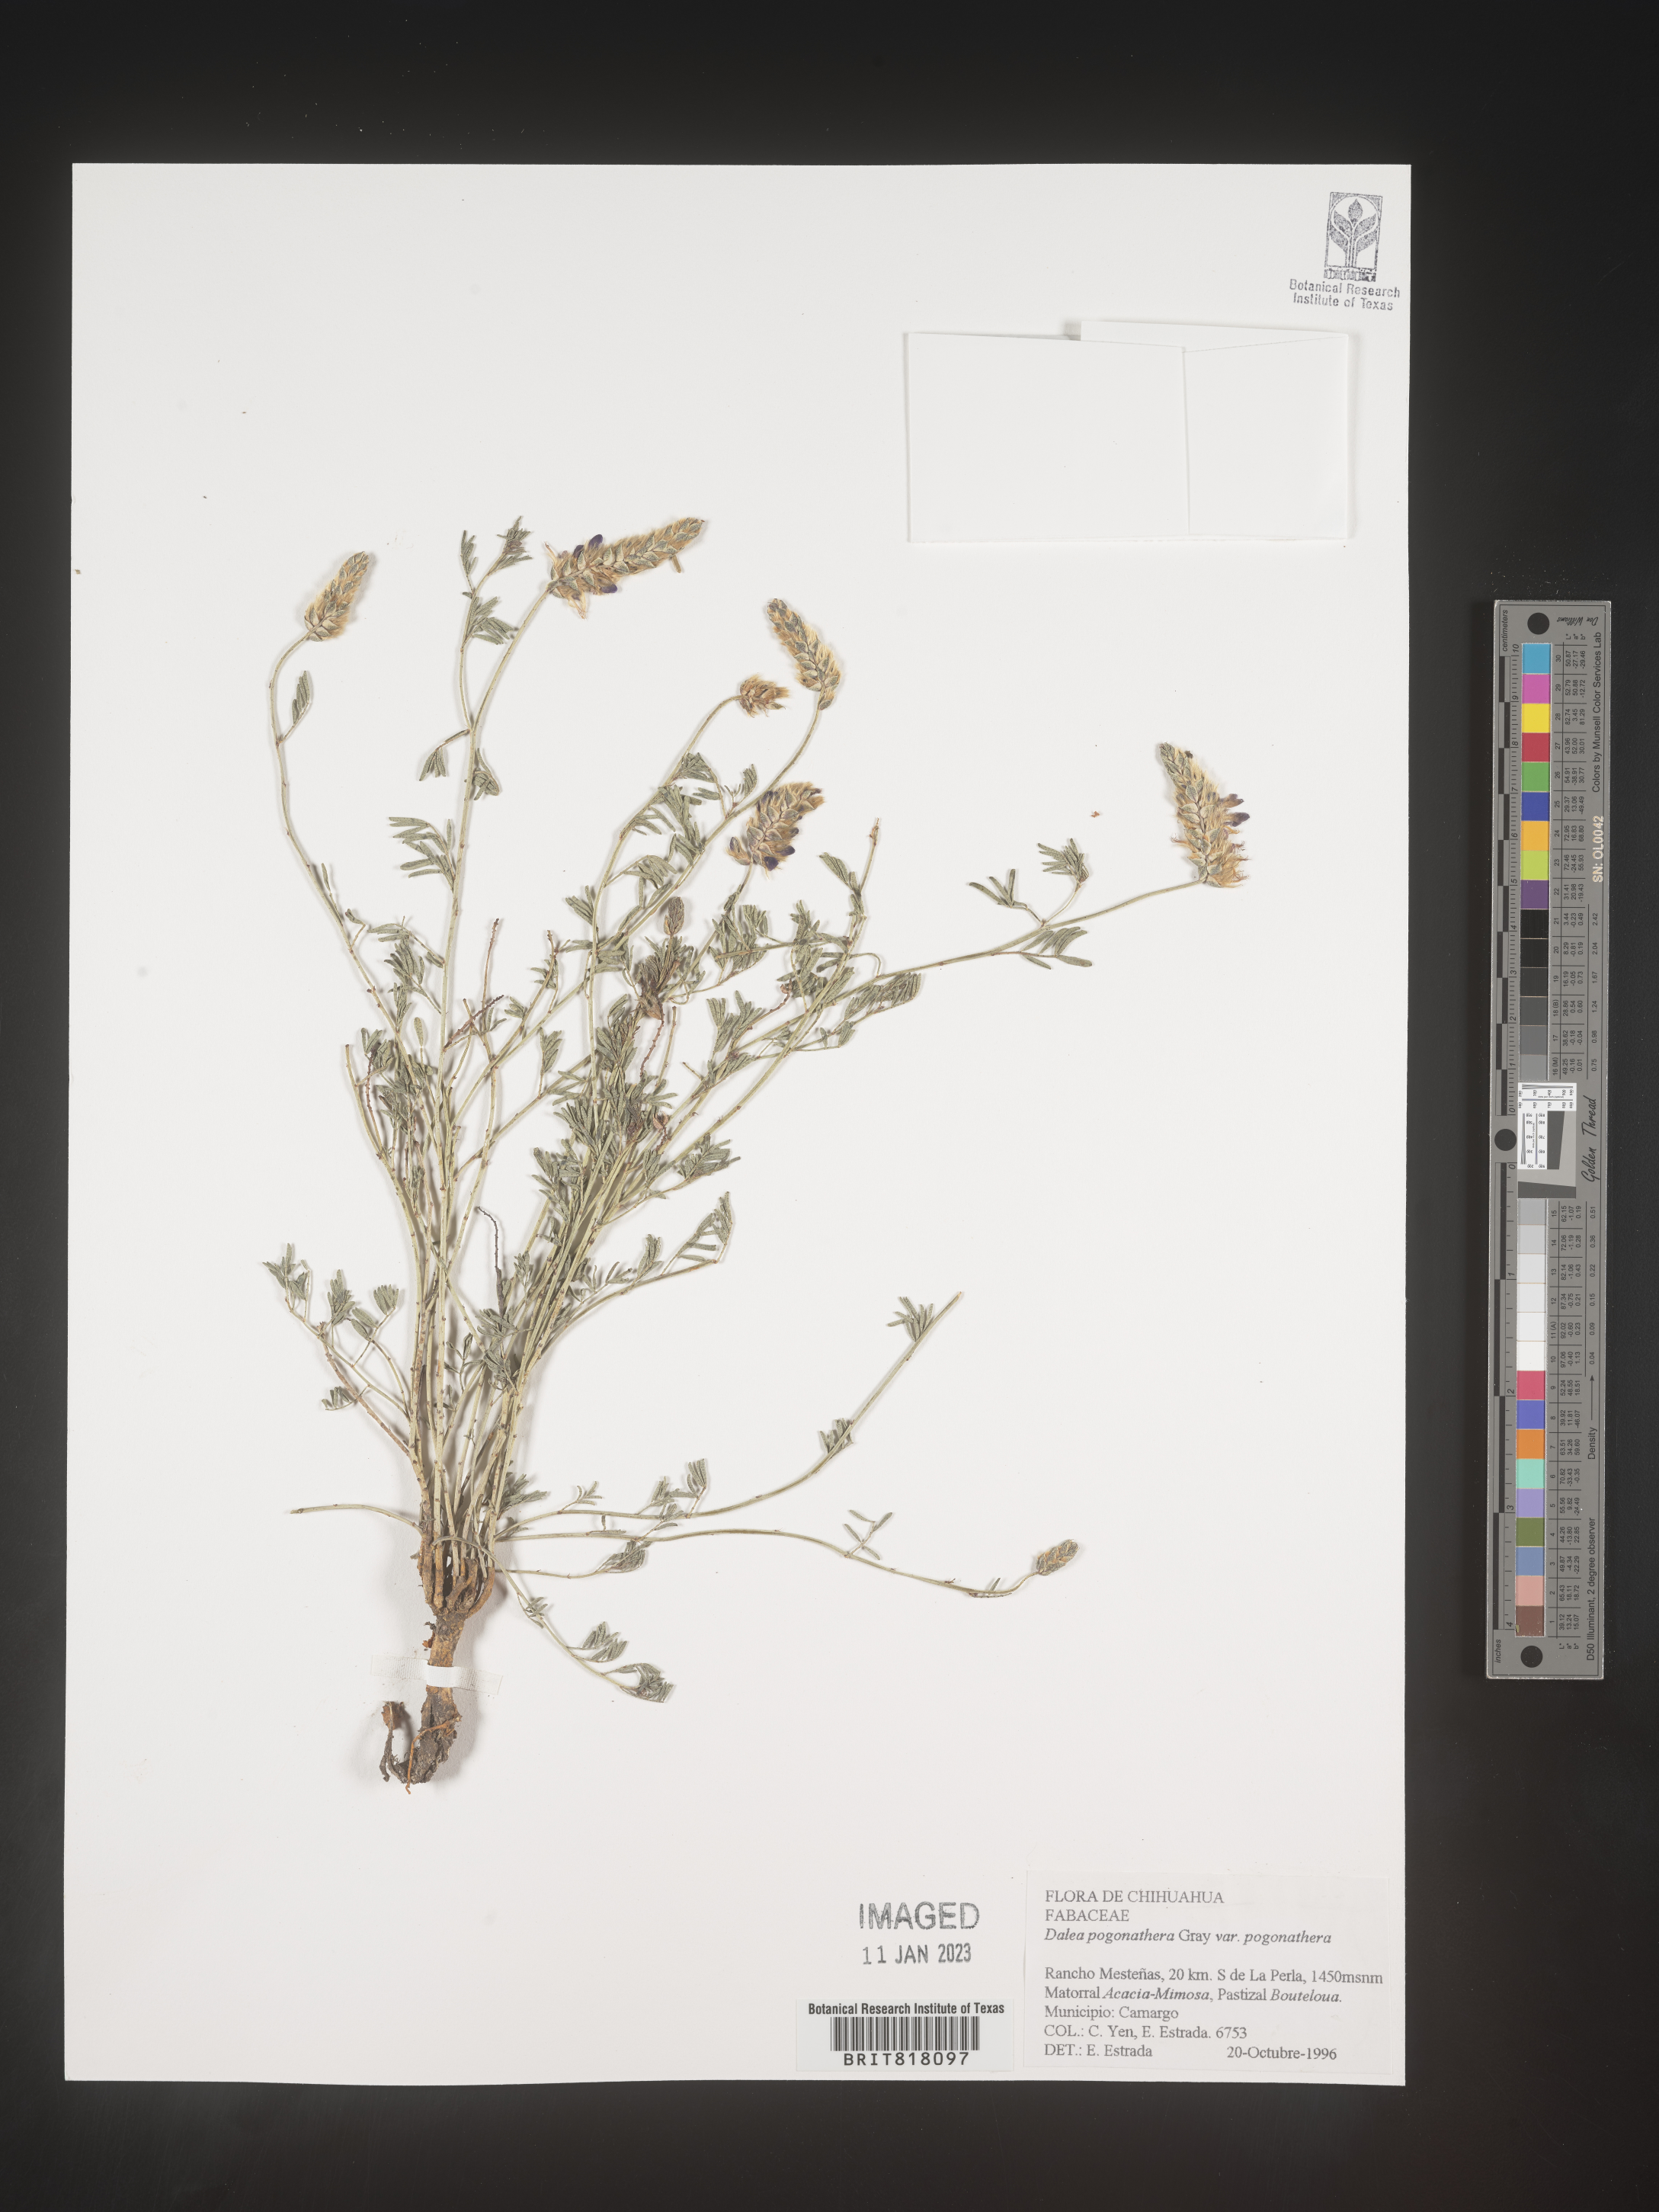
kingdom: Plantae
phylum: Tracheophyta
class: Magnoliopsida
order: Fabales
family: Fabaceae
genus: Dalea
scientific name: Dalea
